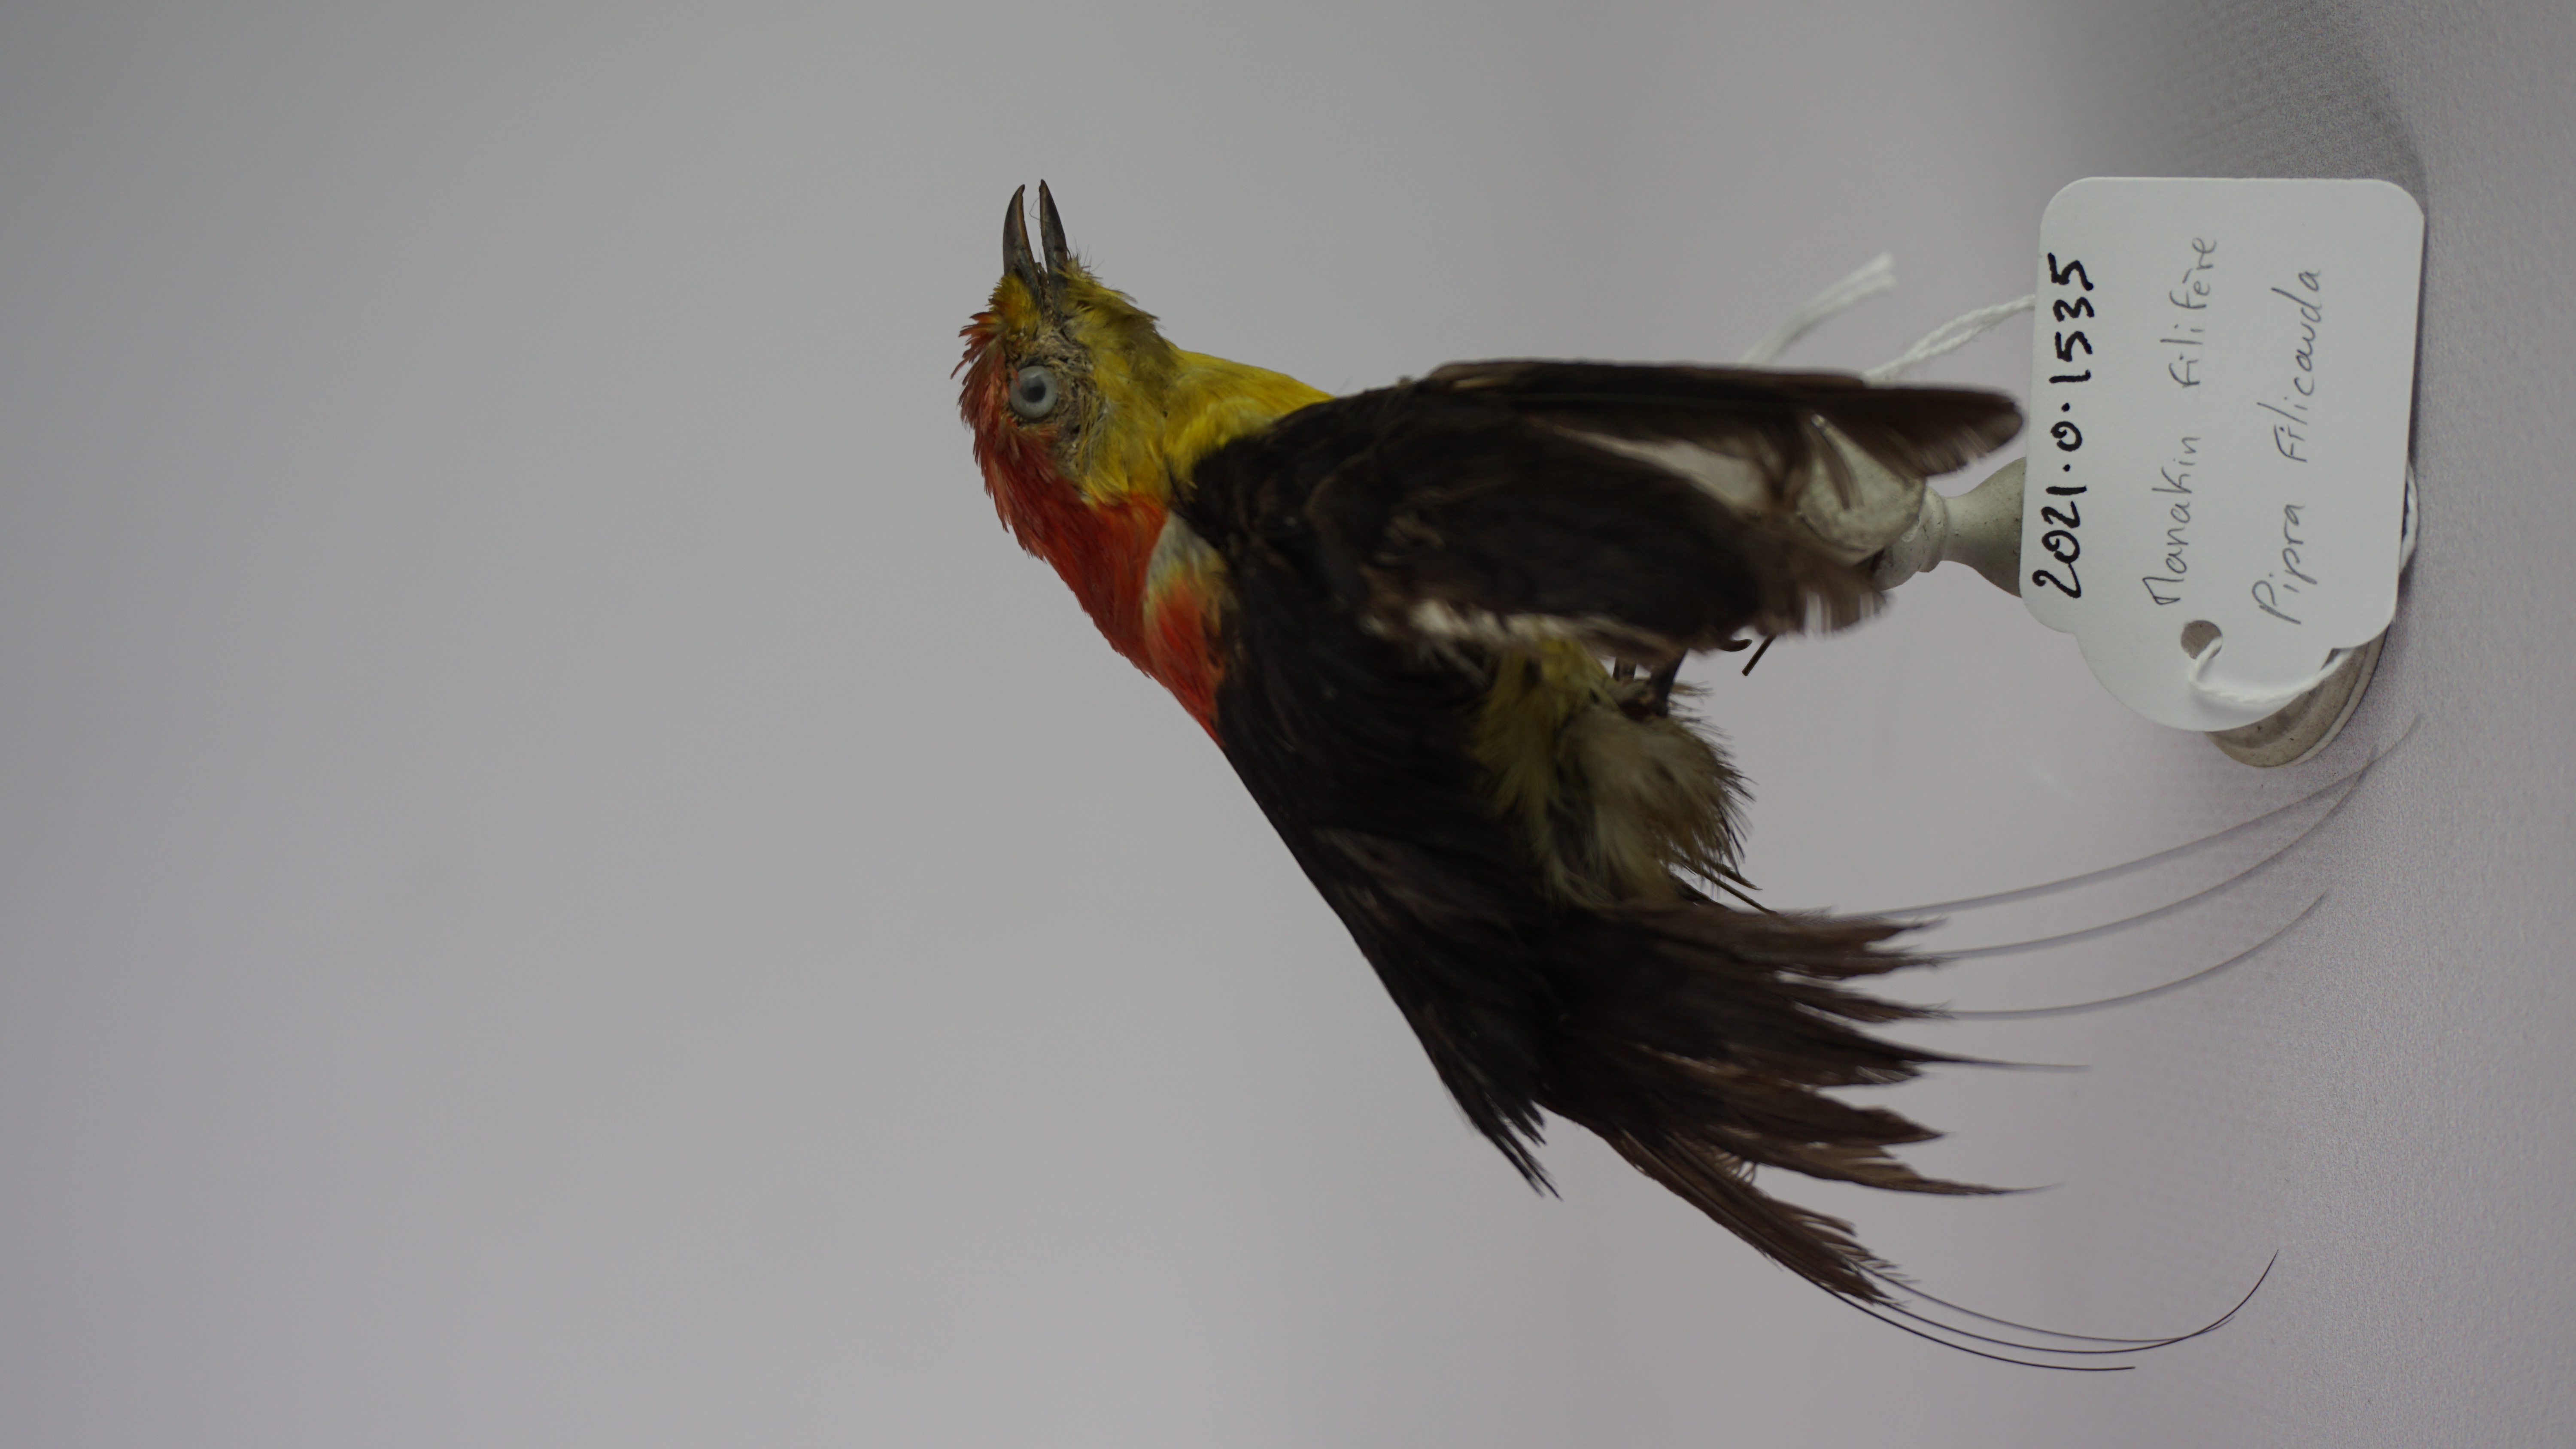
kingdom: Animalia
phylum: Chordata
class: Aves
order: Passeriformes
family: Pipridae
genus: Pipra
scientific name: Pipra filicauda
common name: Wire-tailed manakin
